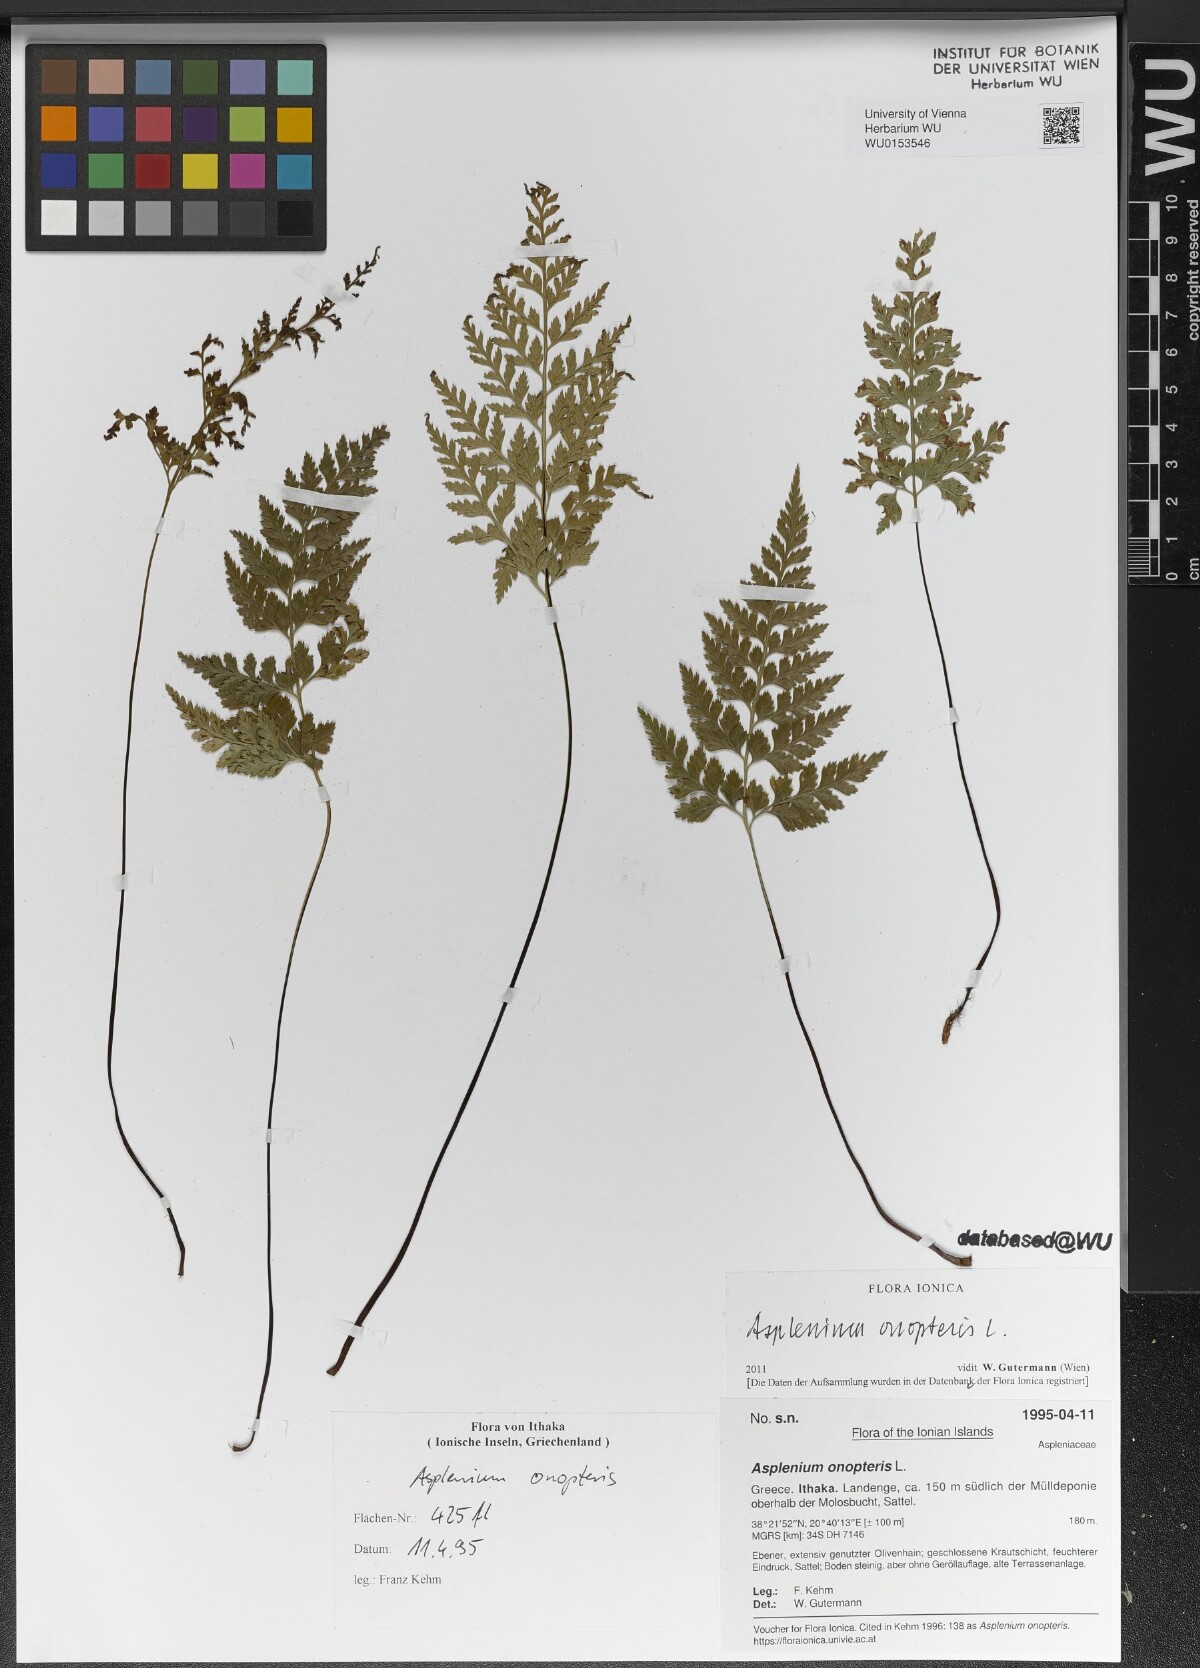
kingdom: Plantae
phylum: Tracheophyta
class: Polypodiopsida
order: Polypodiales
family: Aspleniaceae
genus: Asplenium
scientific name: Asplenium onopteris
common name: Irish spleenwort
